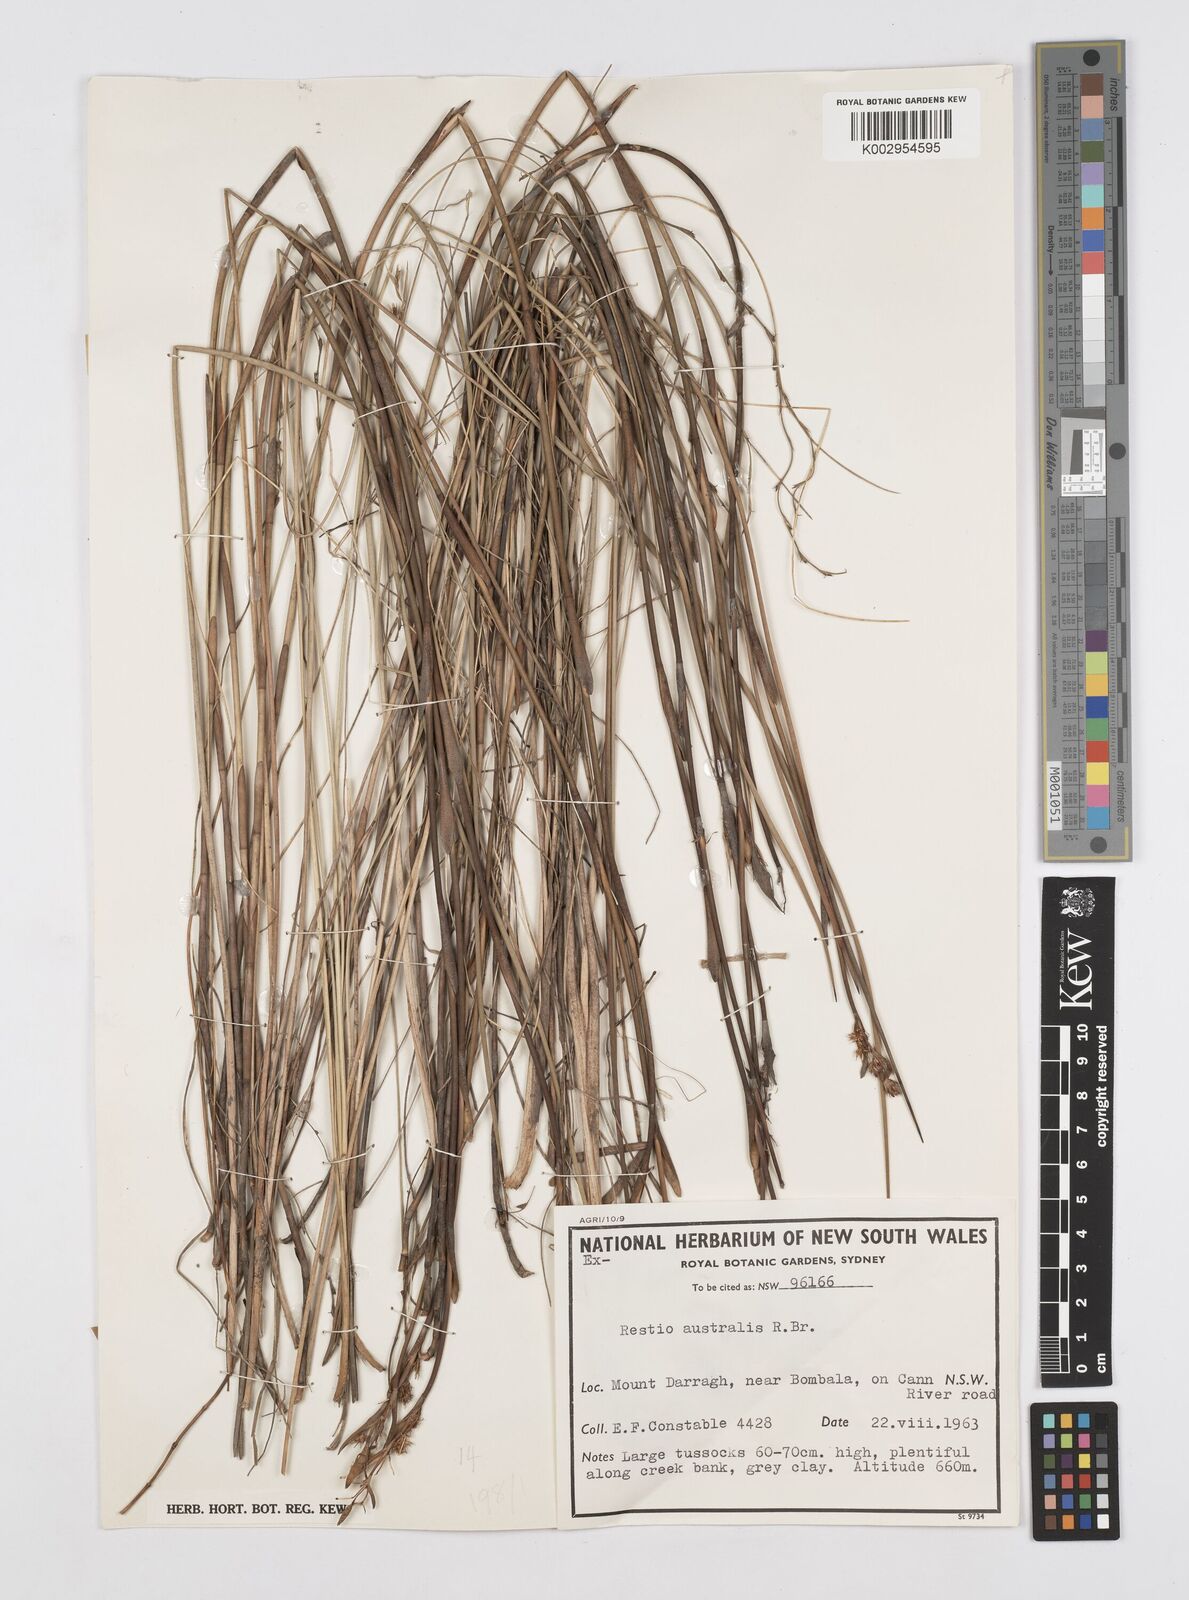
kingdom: Plantae
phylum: Tracheophyta
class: Liliopsida
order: Poales
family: Restionaceae
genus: Baloskion
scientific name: Baloskion australe
